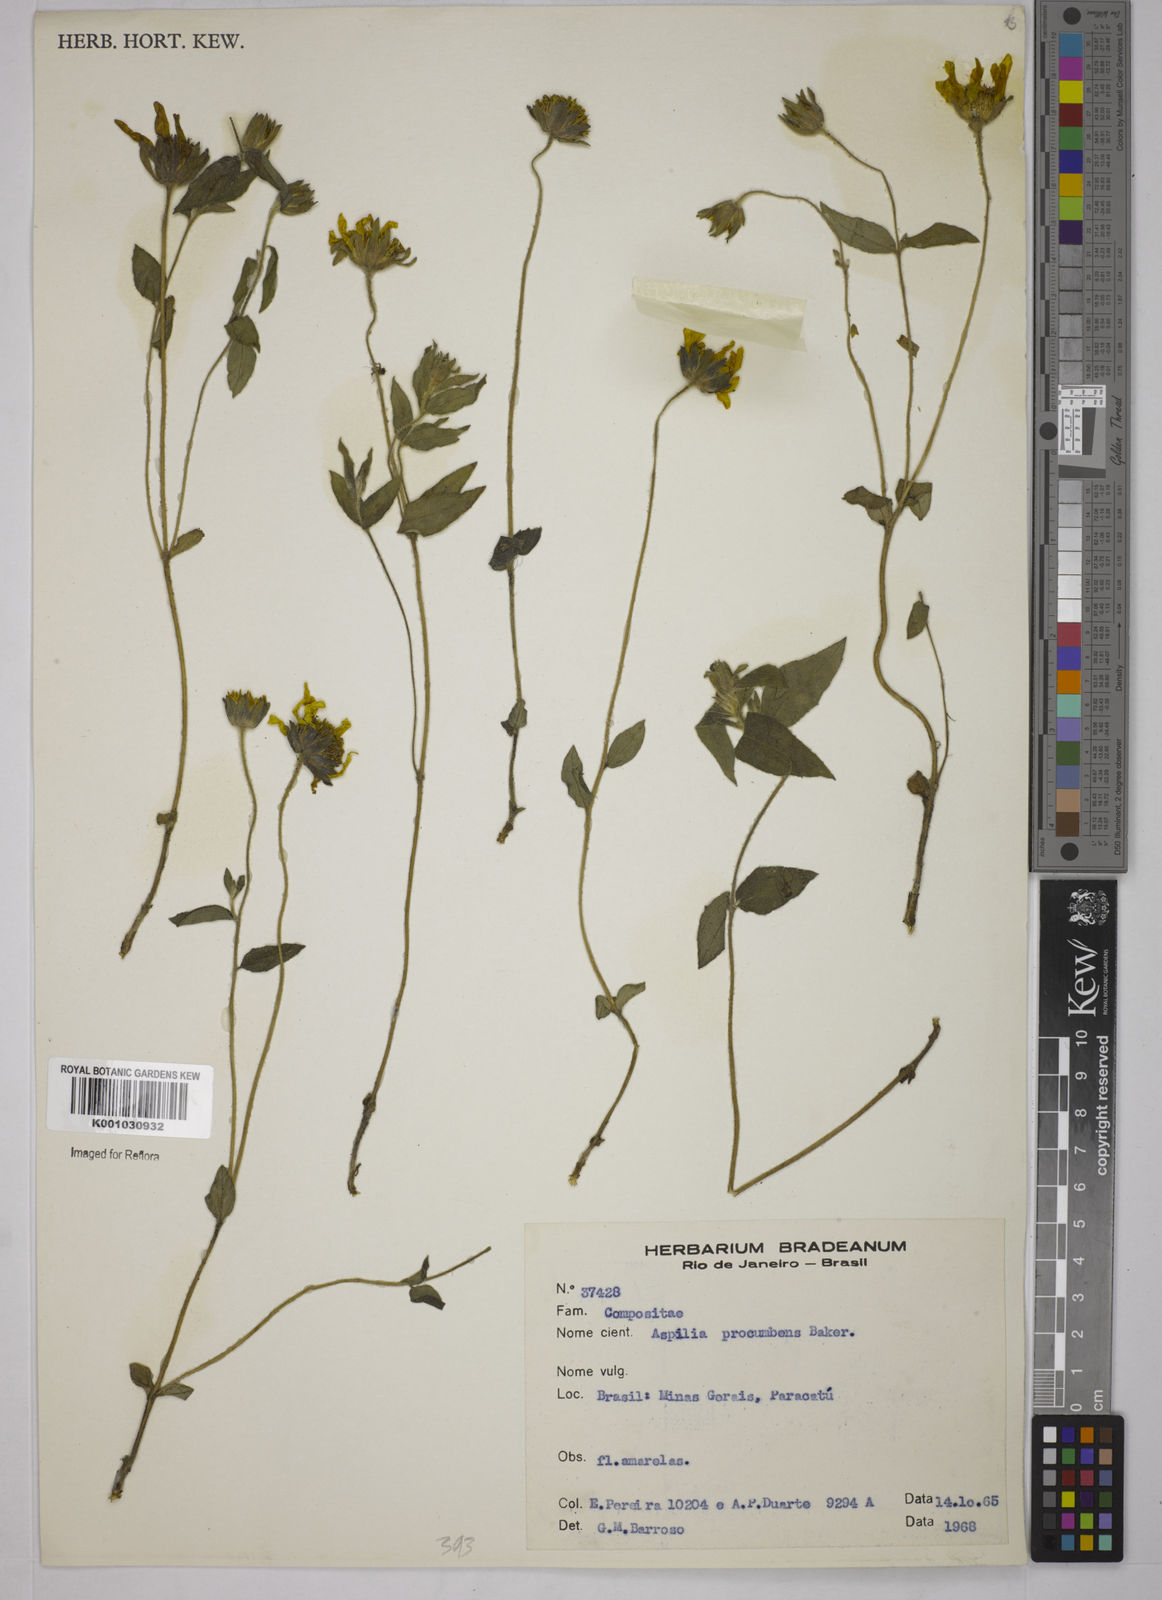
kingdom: Plantae
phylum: Tracheophyta
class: Magnoliopsida
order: Asterales
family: Asteraceae
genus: Wedelia
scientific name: Wedelia procumbens
